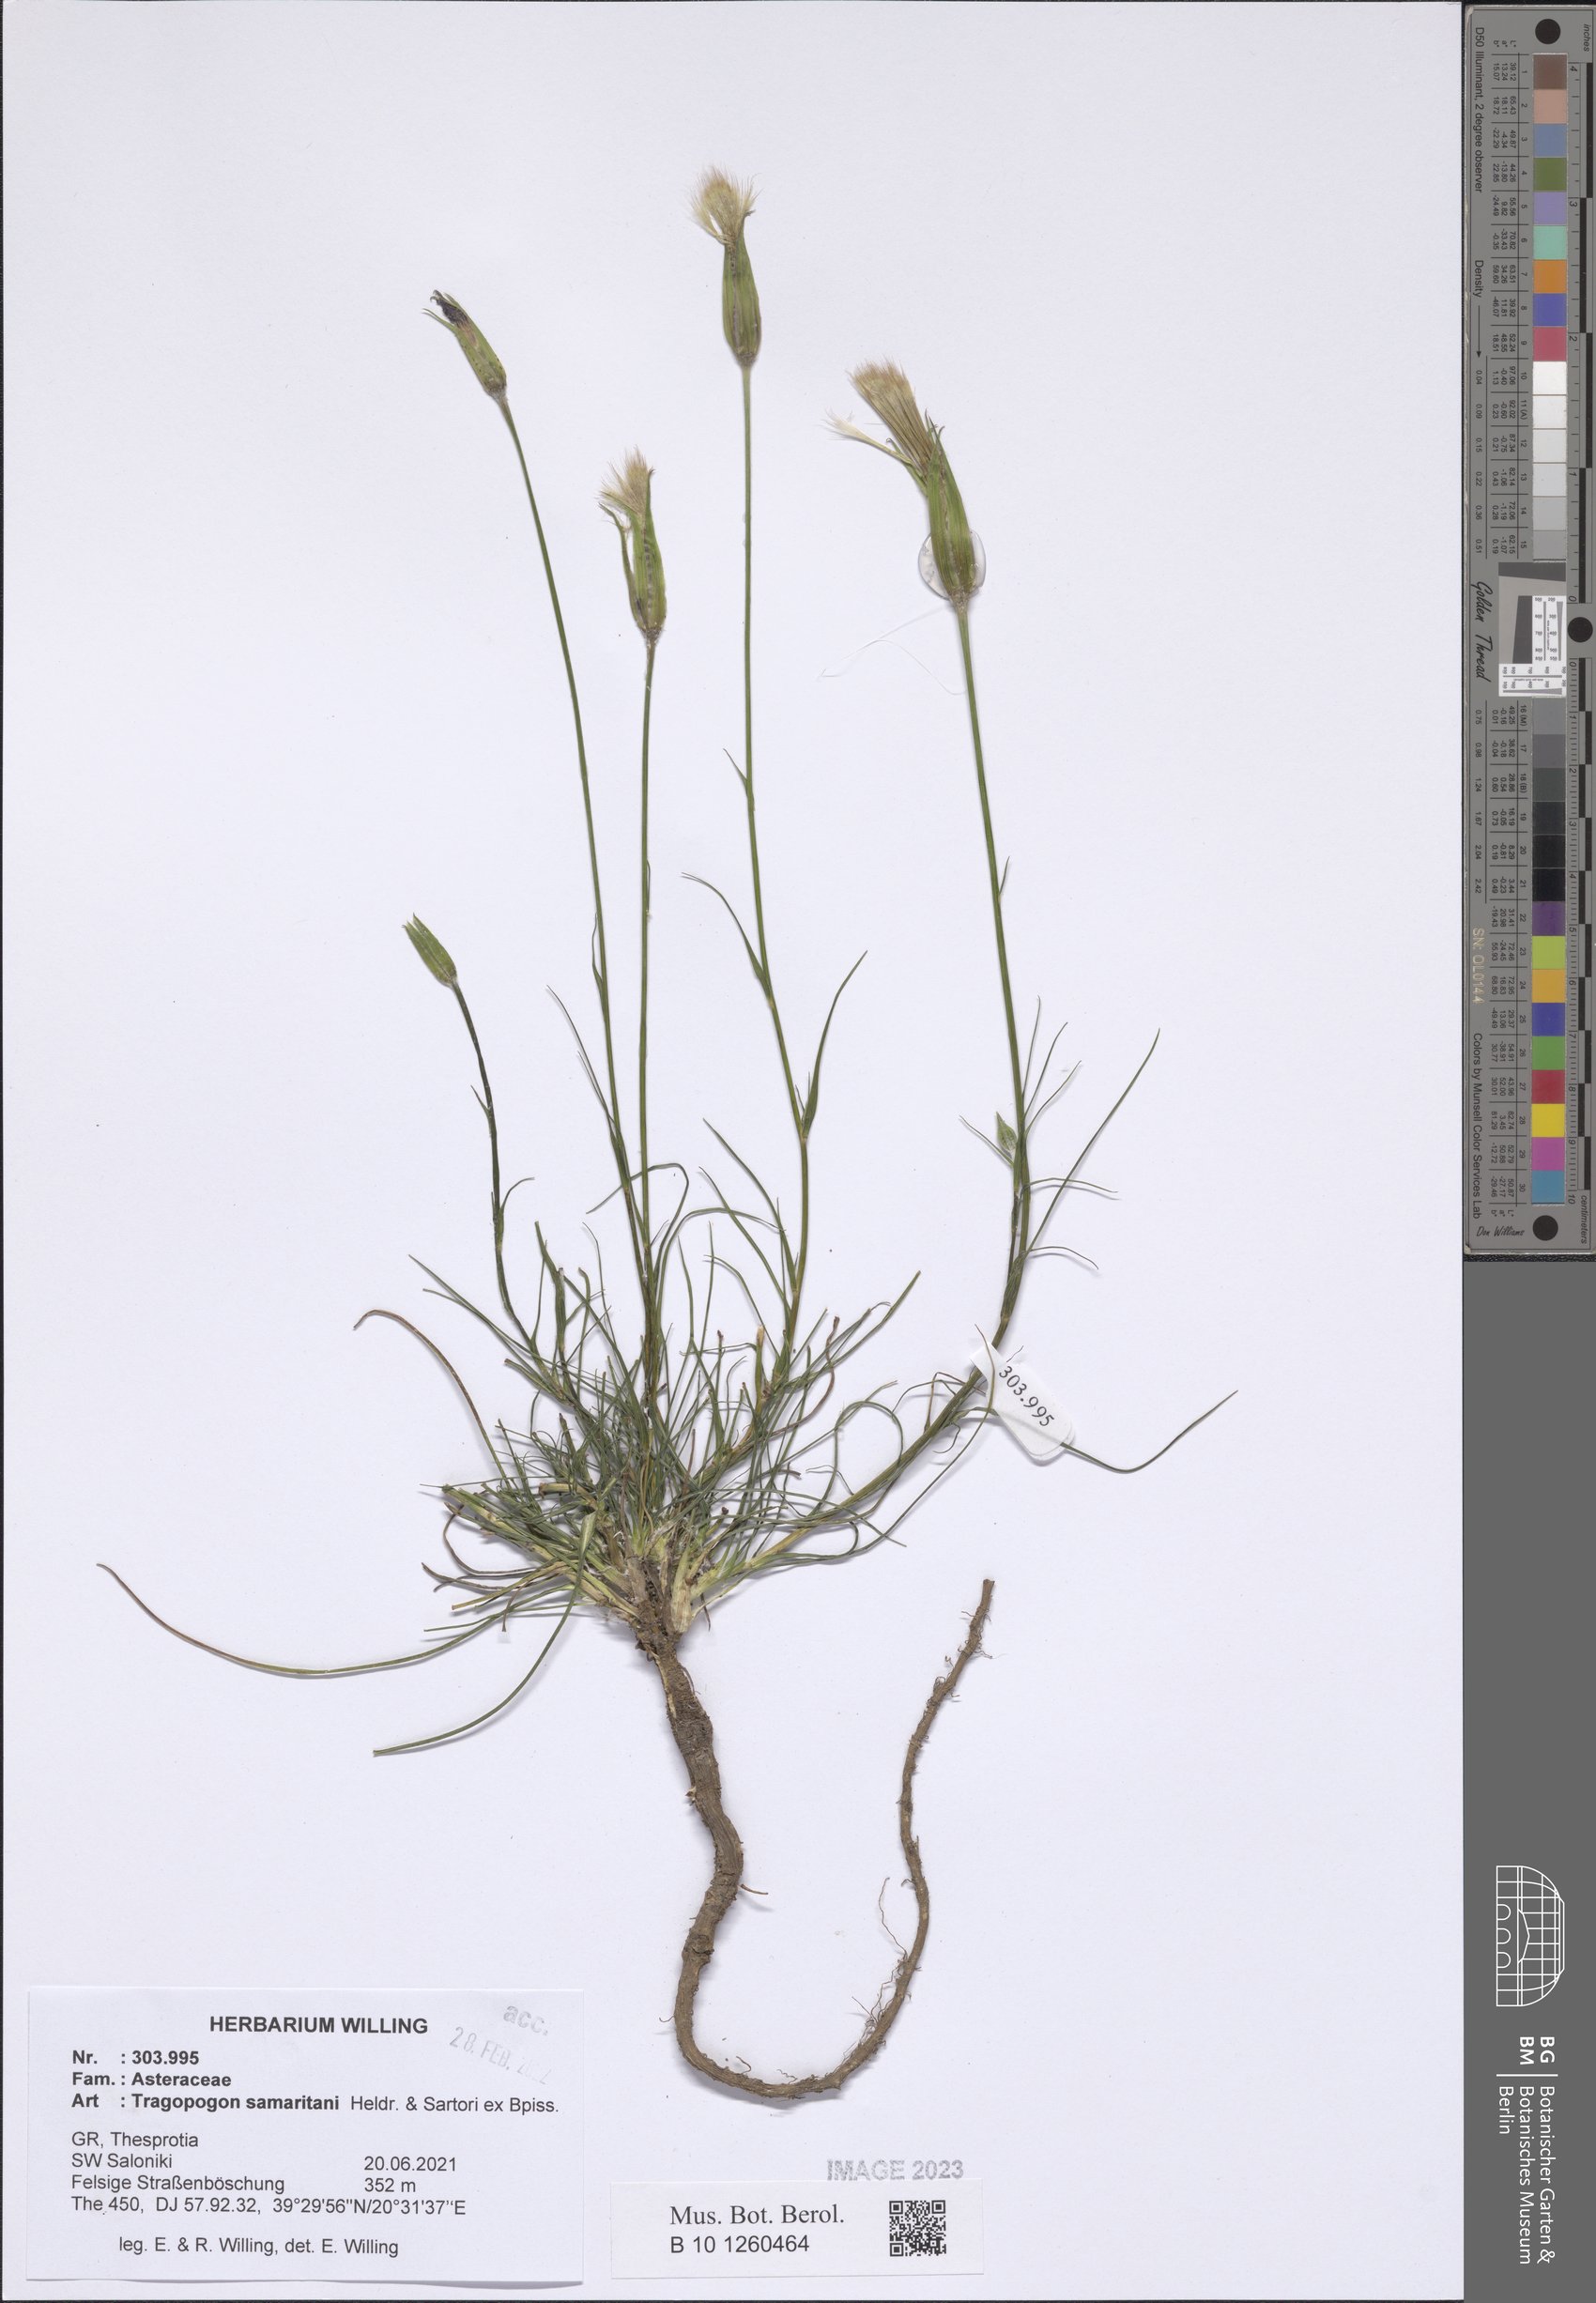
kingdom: Plantae
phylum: Tracheophyta
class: Magnoliopsida
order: Asterales
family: Asteraceae
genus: Tragopogon
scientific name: Tragopogon samaritani
